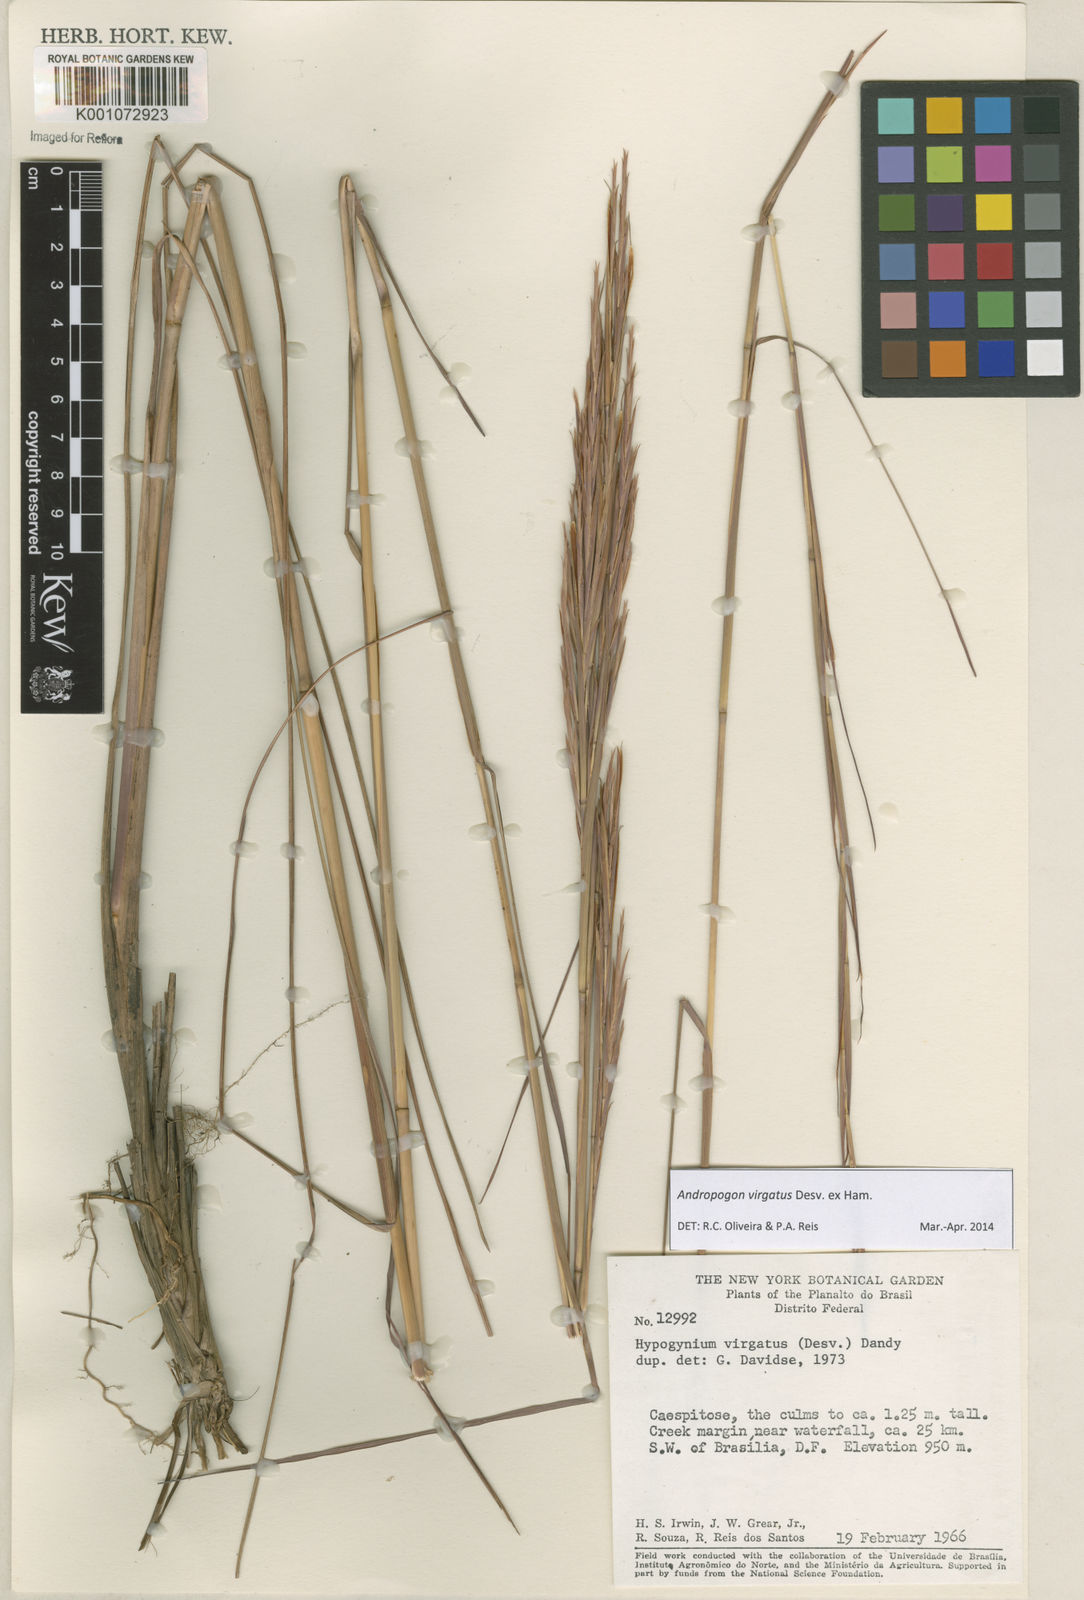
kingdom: Plantae
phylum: Tracheophyta
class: Liliopsida
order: Poales
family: Poaceae
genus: Andropogon
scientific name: Andropogon virgatus
